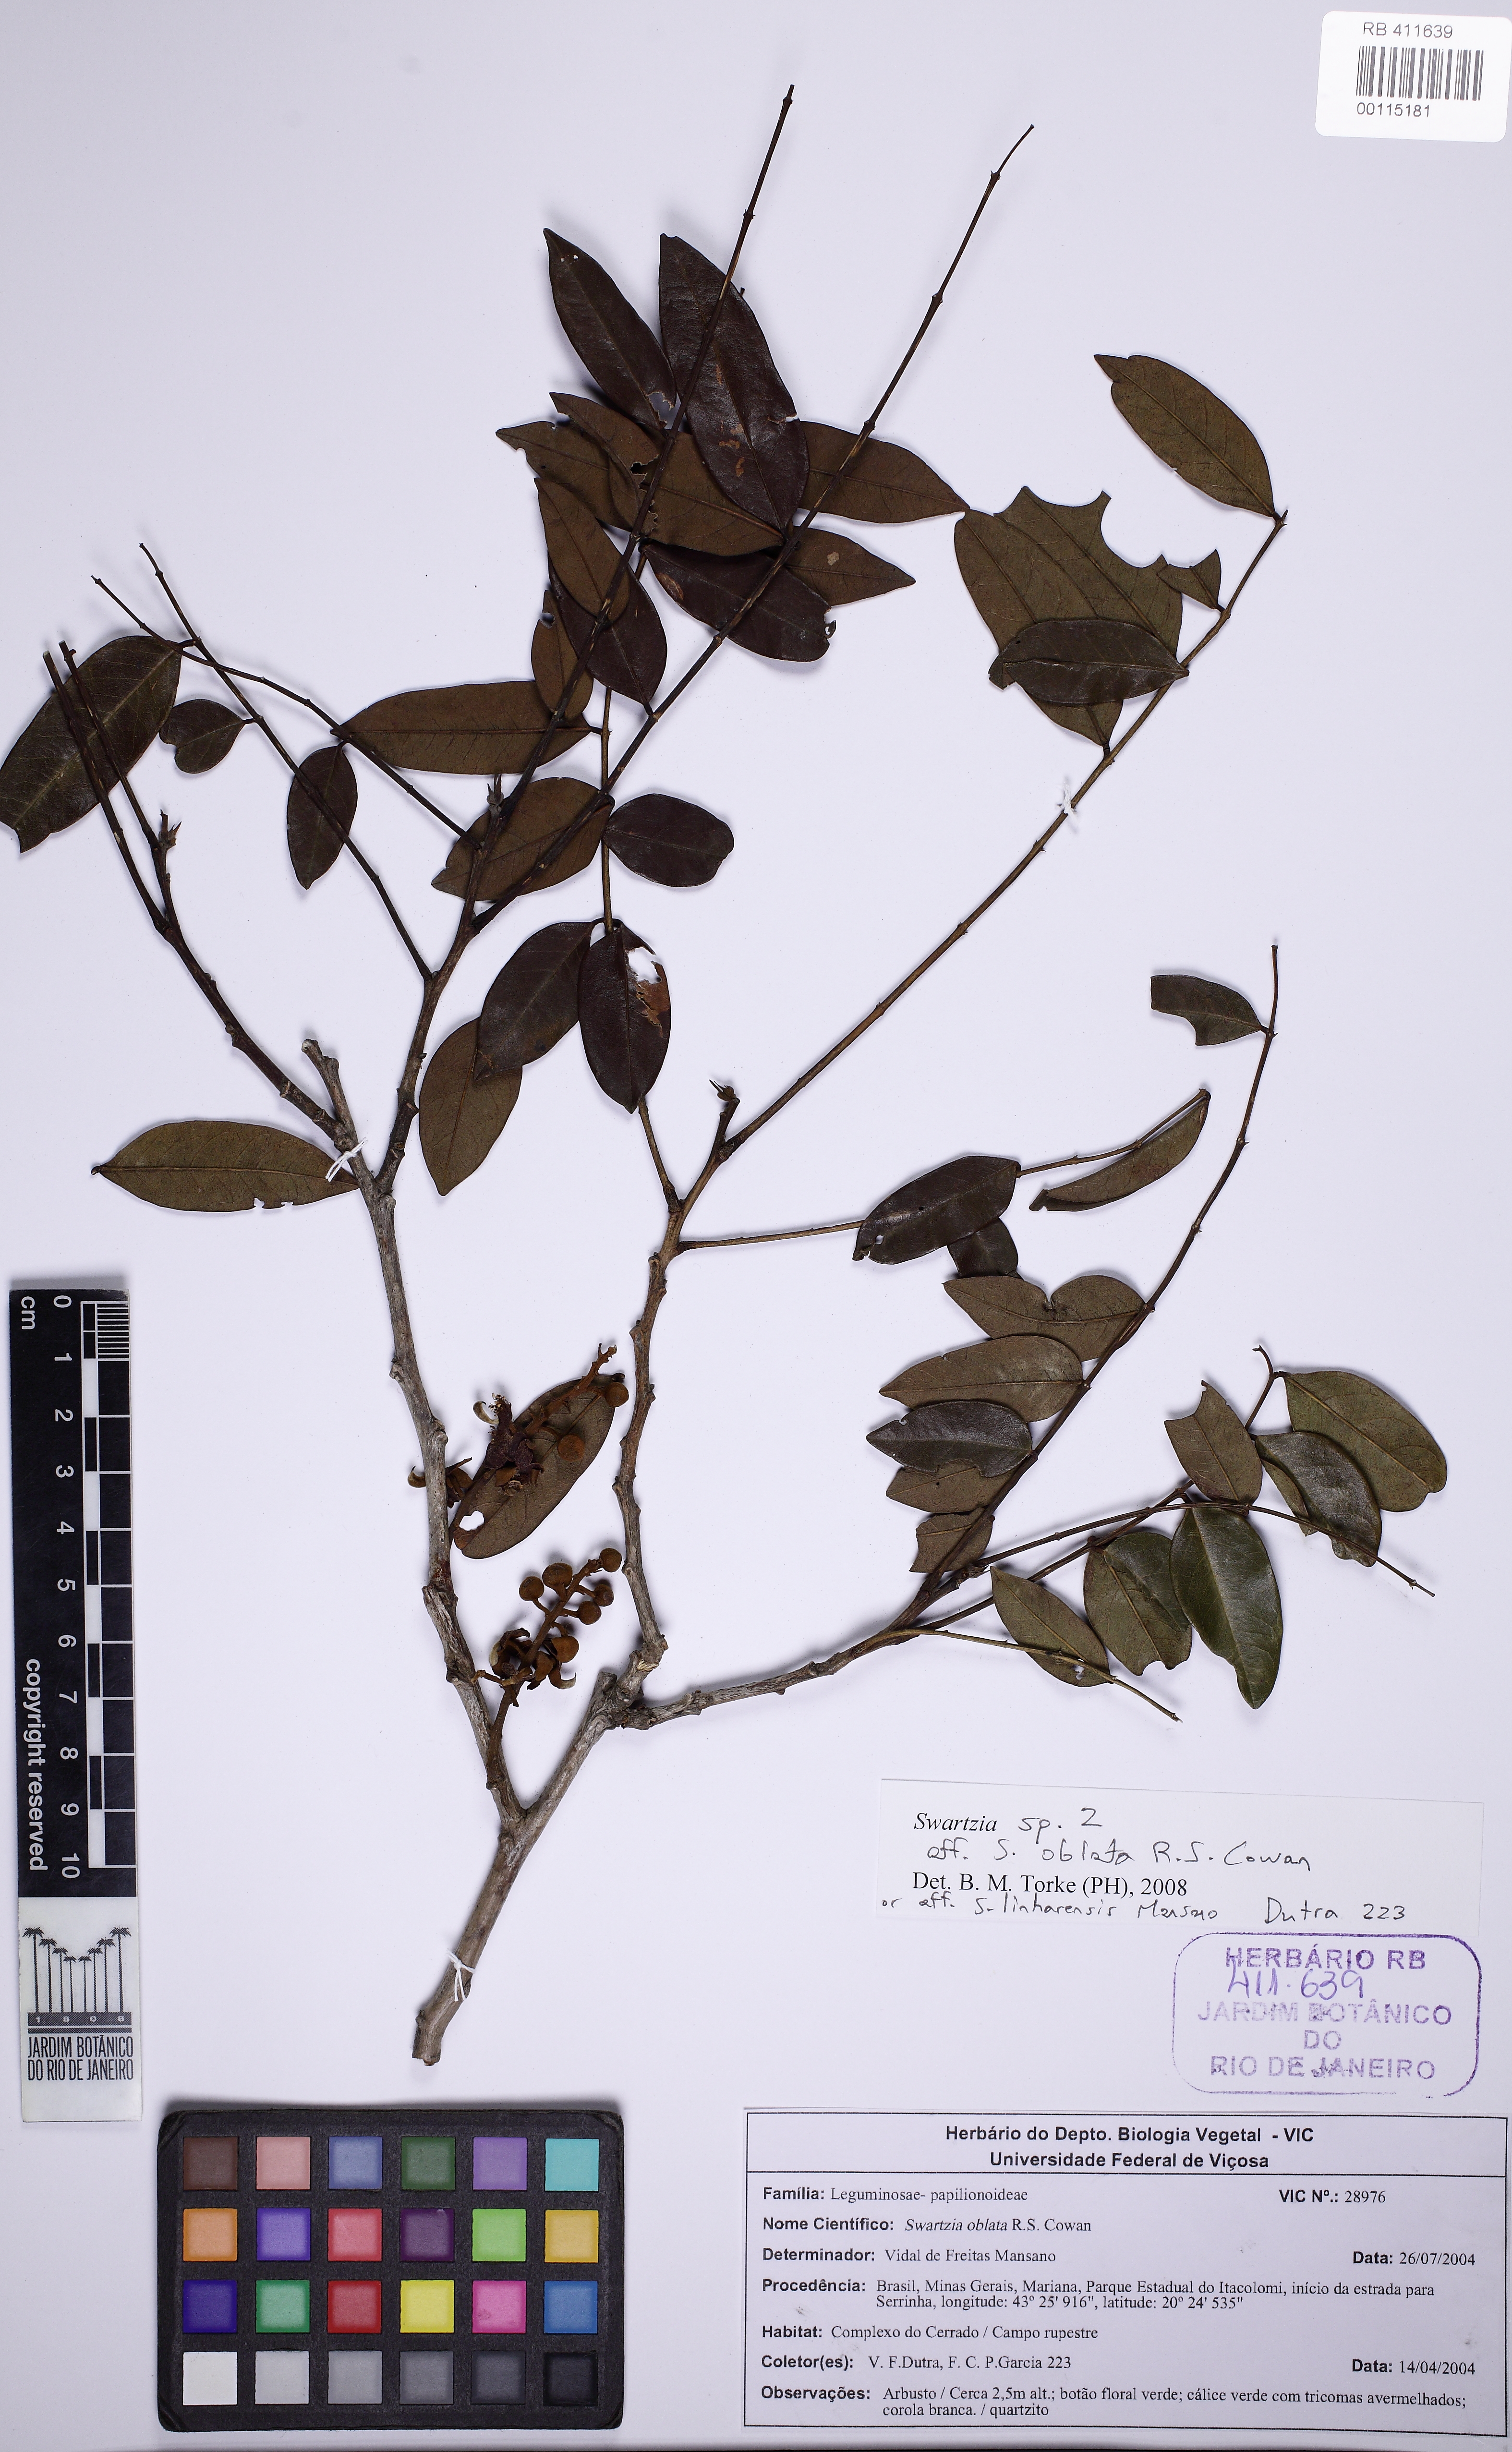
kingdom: Plantae
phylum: Tracheophyta
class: Magnoliopsida
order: Fabales
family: Fabaceae
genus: Swartzia
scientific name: Swartzia oblata
